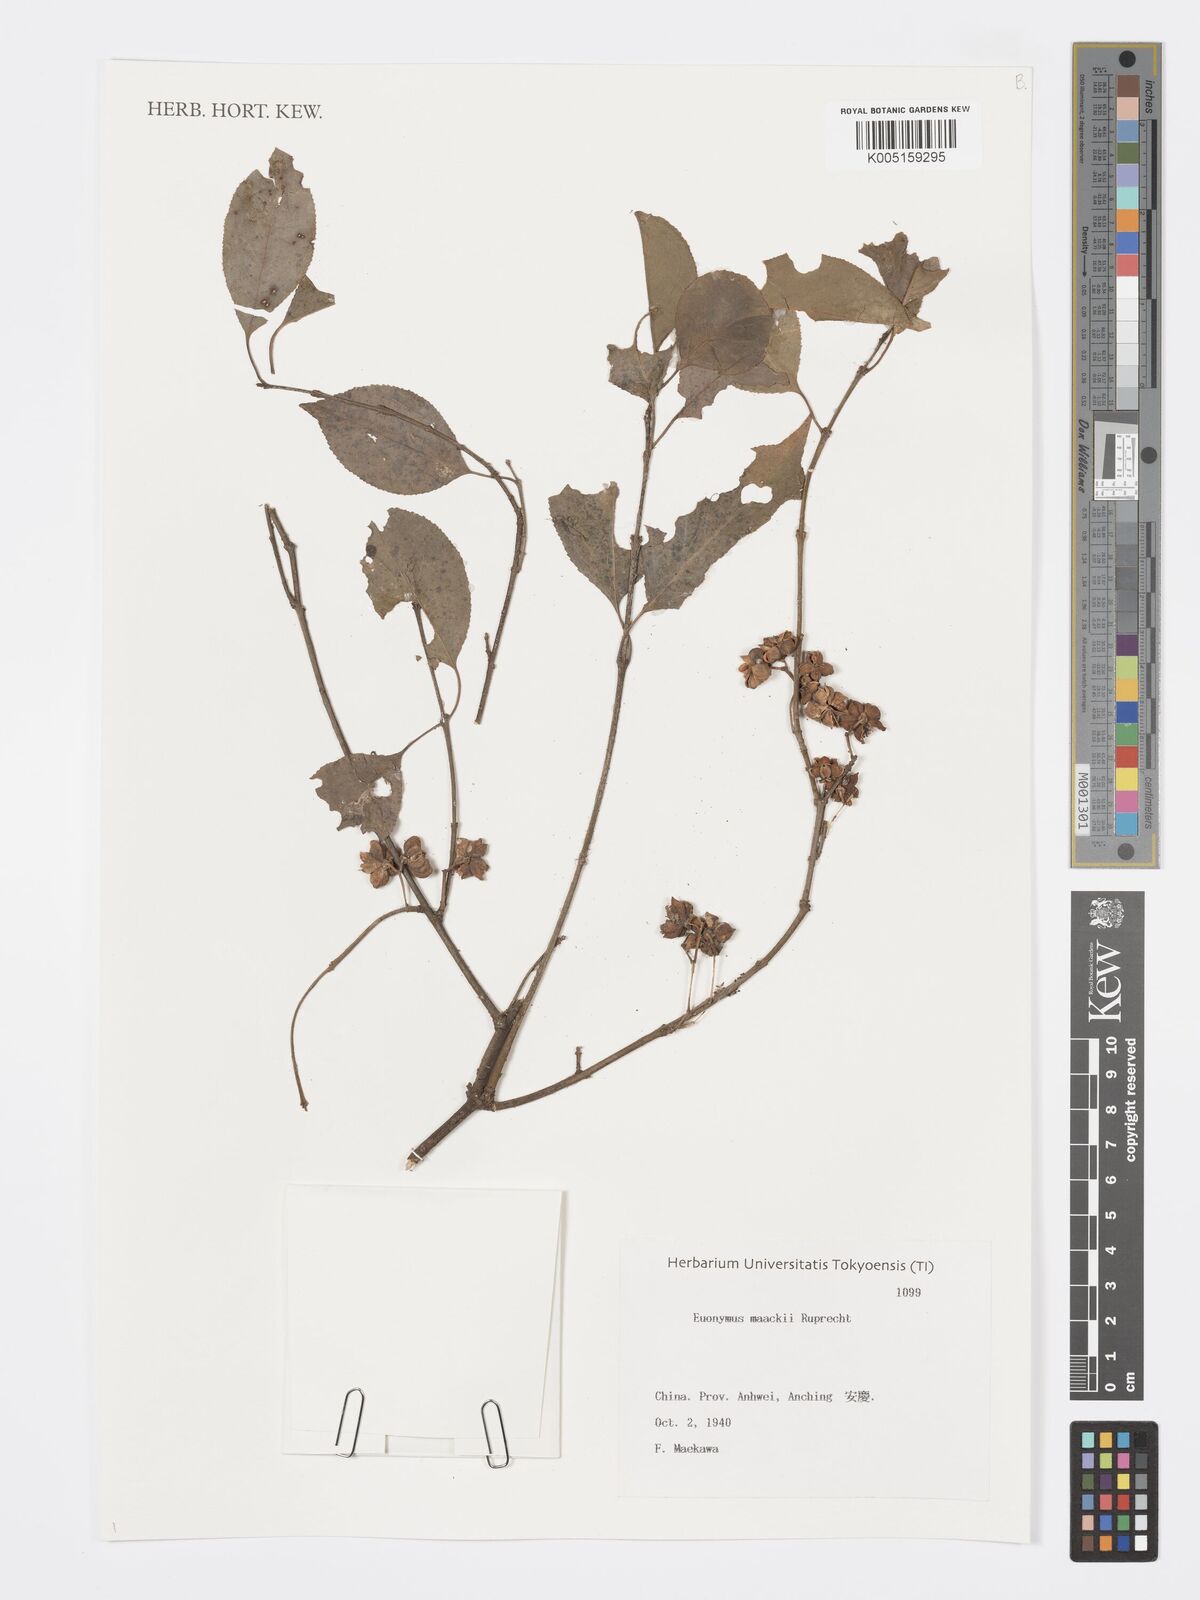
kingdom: Plantae
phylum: Tracheophyta
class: Magnoliopsida
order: Celastrales
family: Celastraceae
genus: Euonymus
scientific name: Euonymus maackii
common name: Hamilton's spindletree
